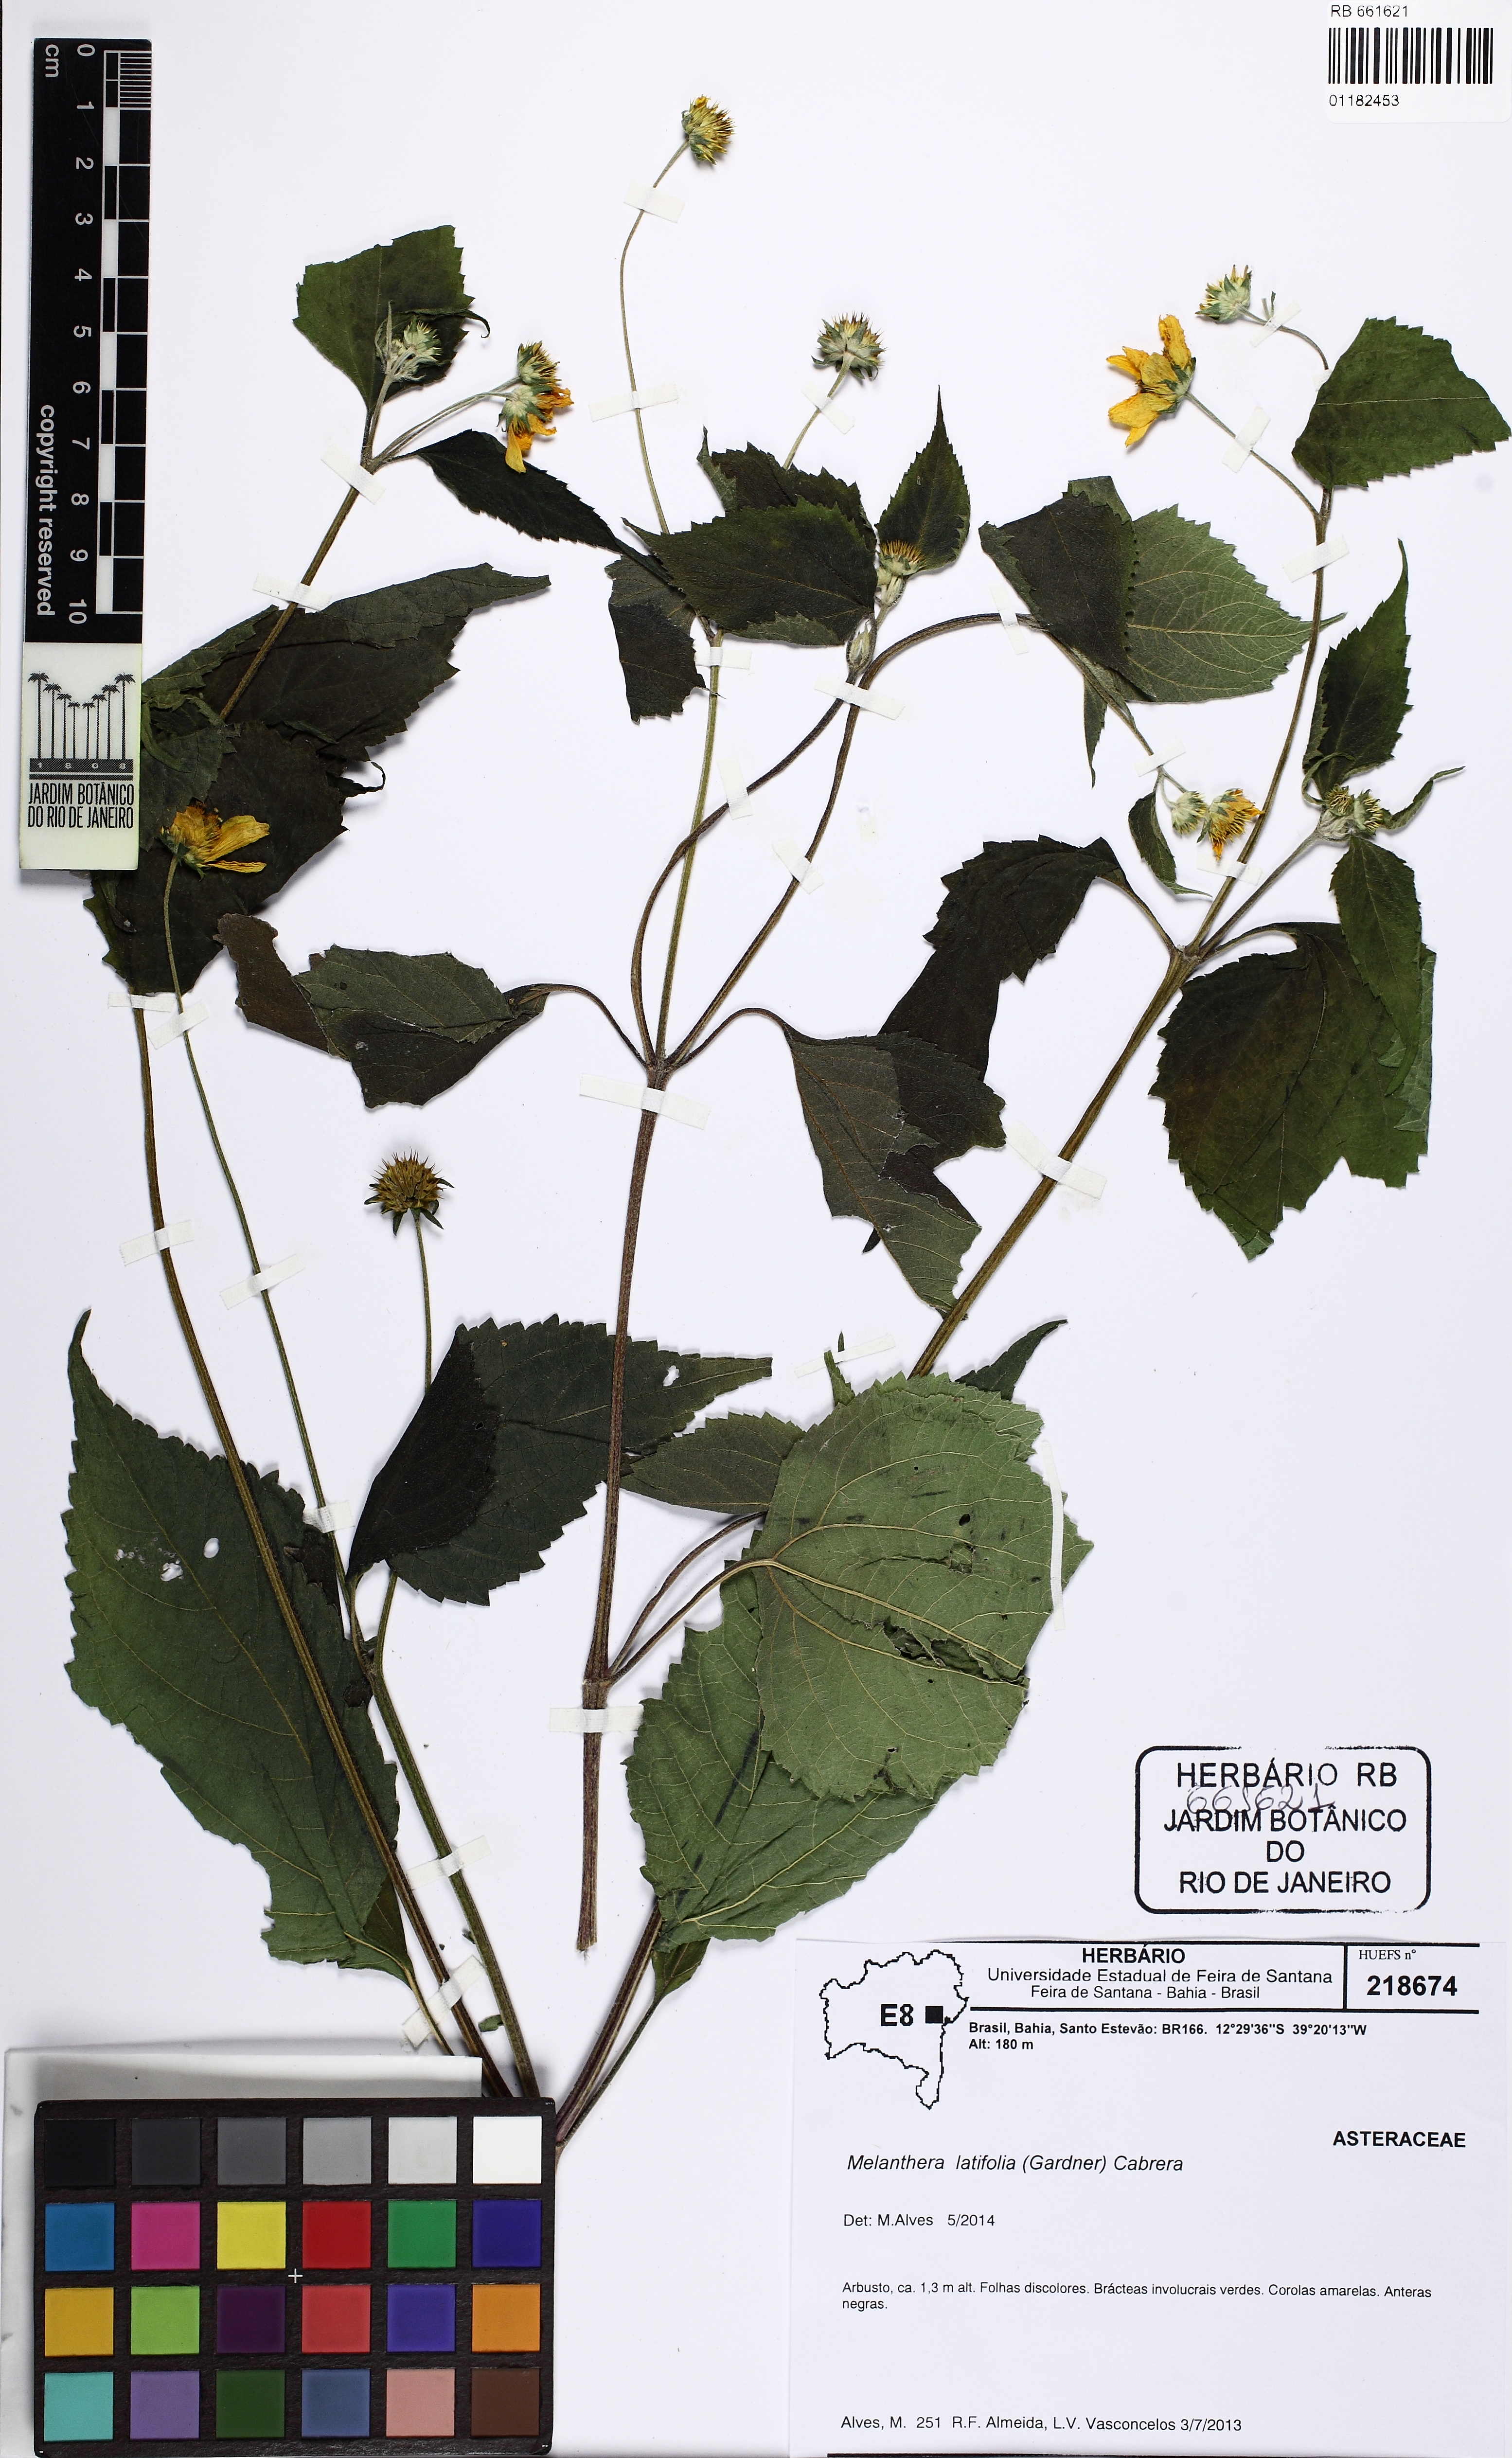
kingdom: Plantae
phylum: Tracheophyta
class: Magnoliopsida
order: Asterales
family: Asteraceae
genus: Echinocephalum
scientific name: Echinocephalum latifolium
